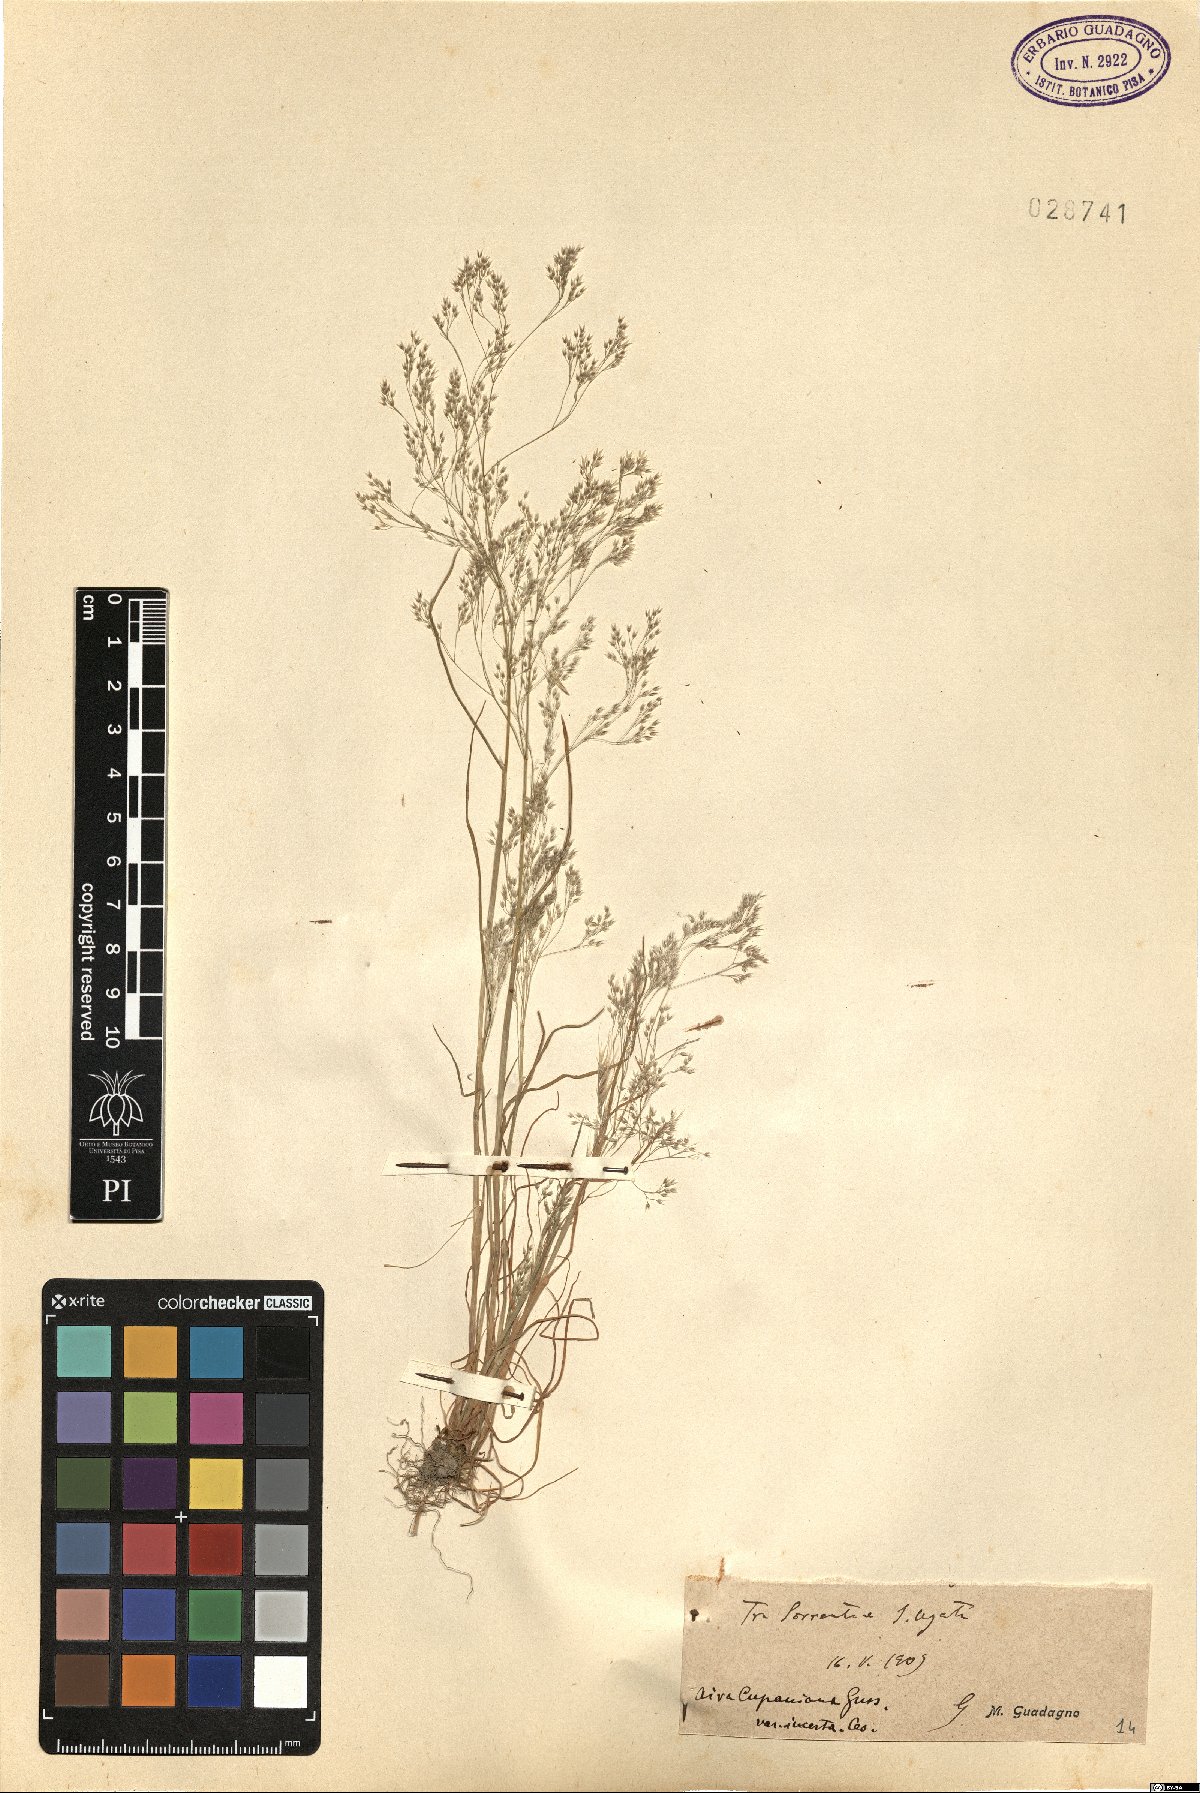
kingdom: Plantae
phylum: Tracheophyta
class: Liliopsida
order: Poales
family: Poaceae
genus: Aira
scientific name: Aira cupaniana
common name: Silver hairgrass
